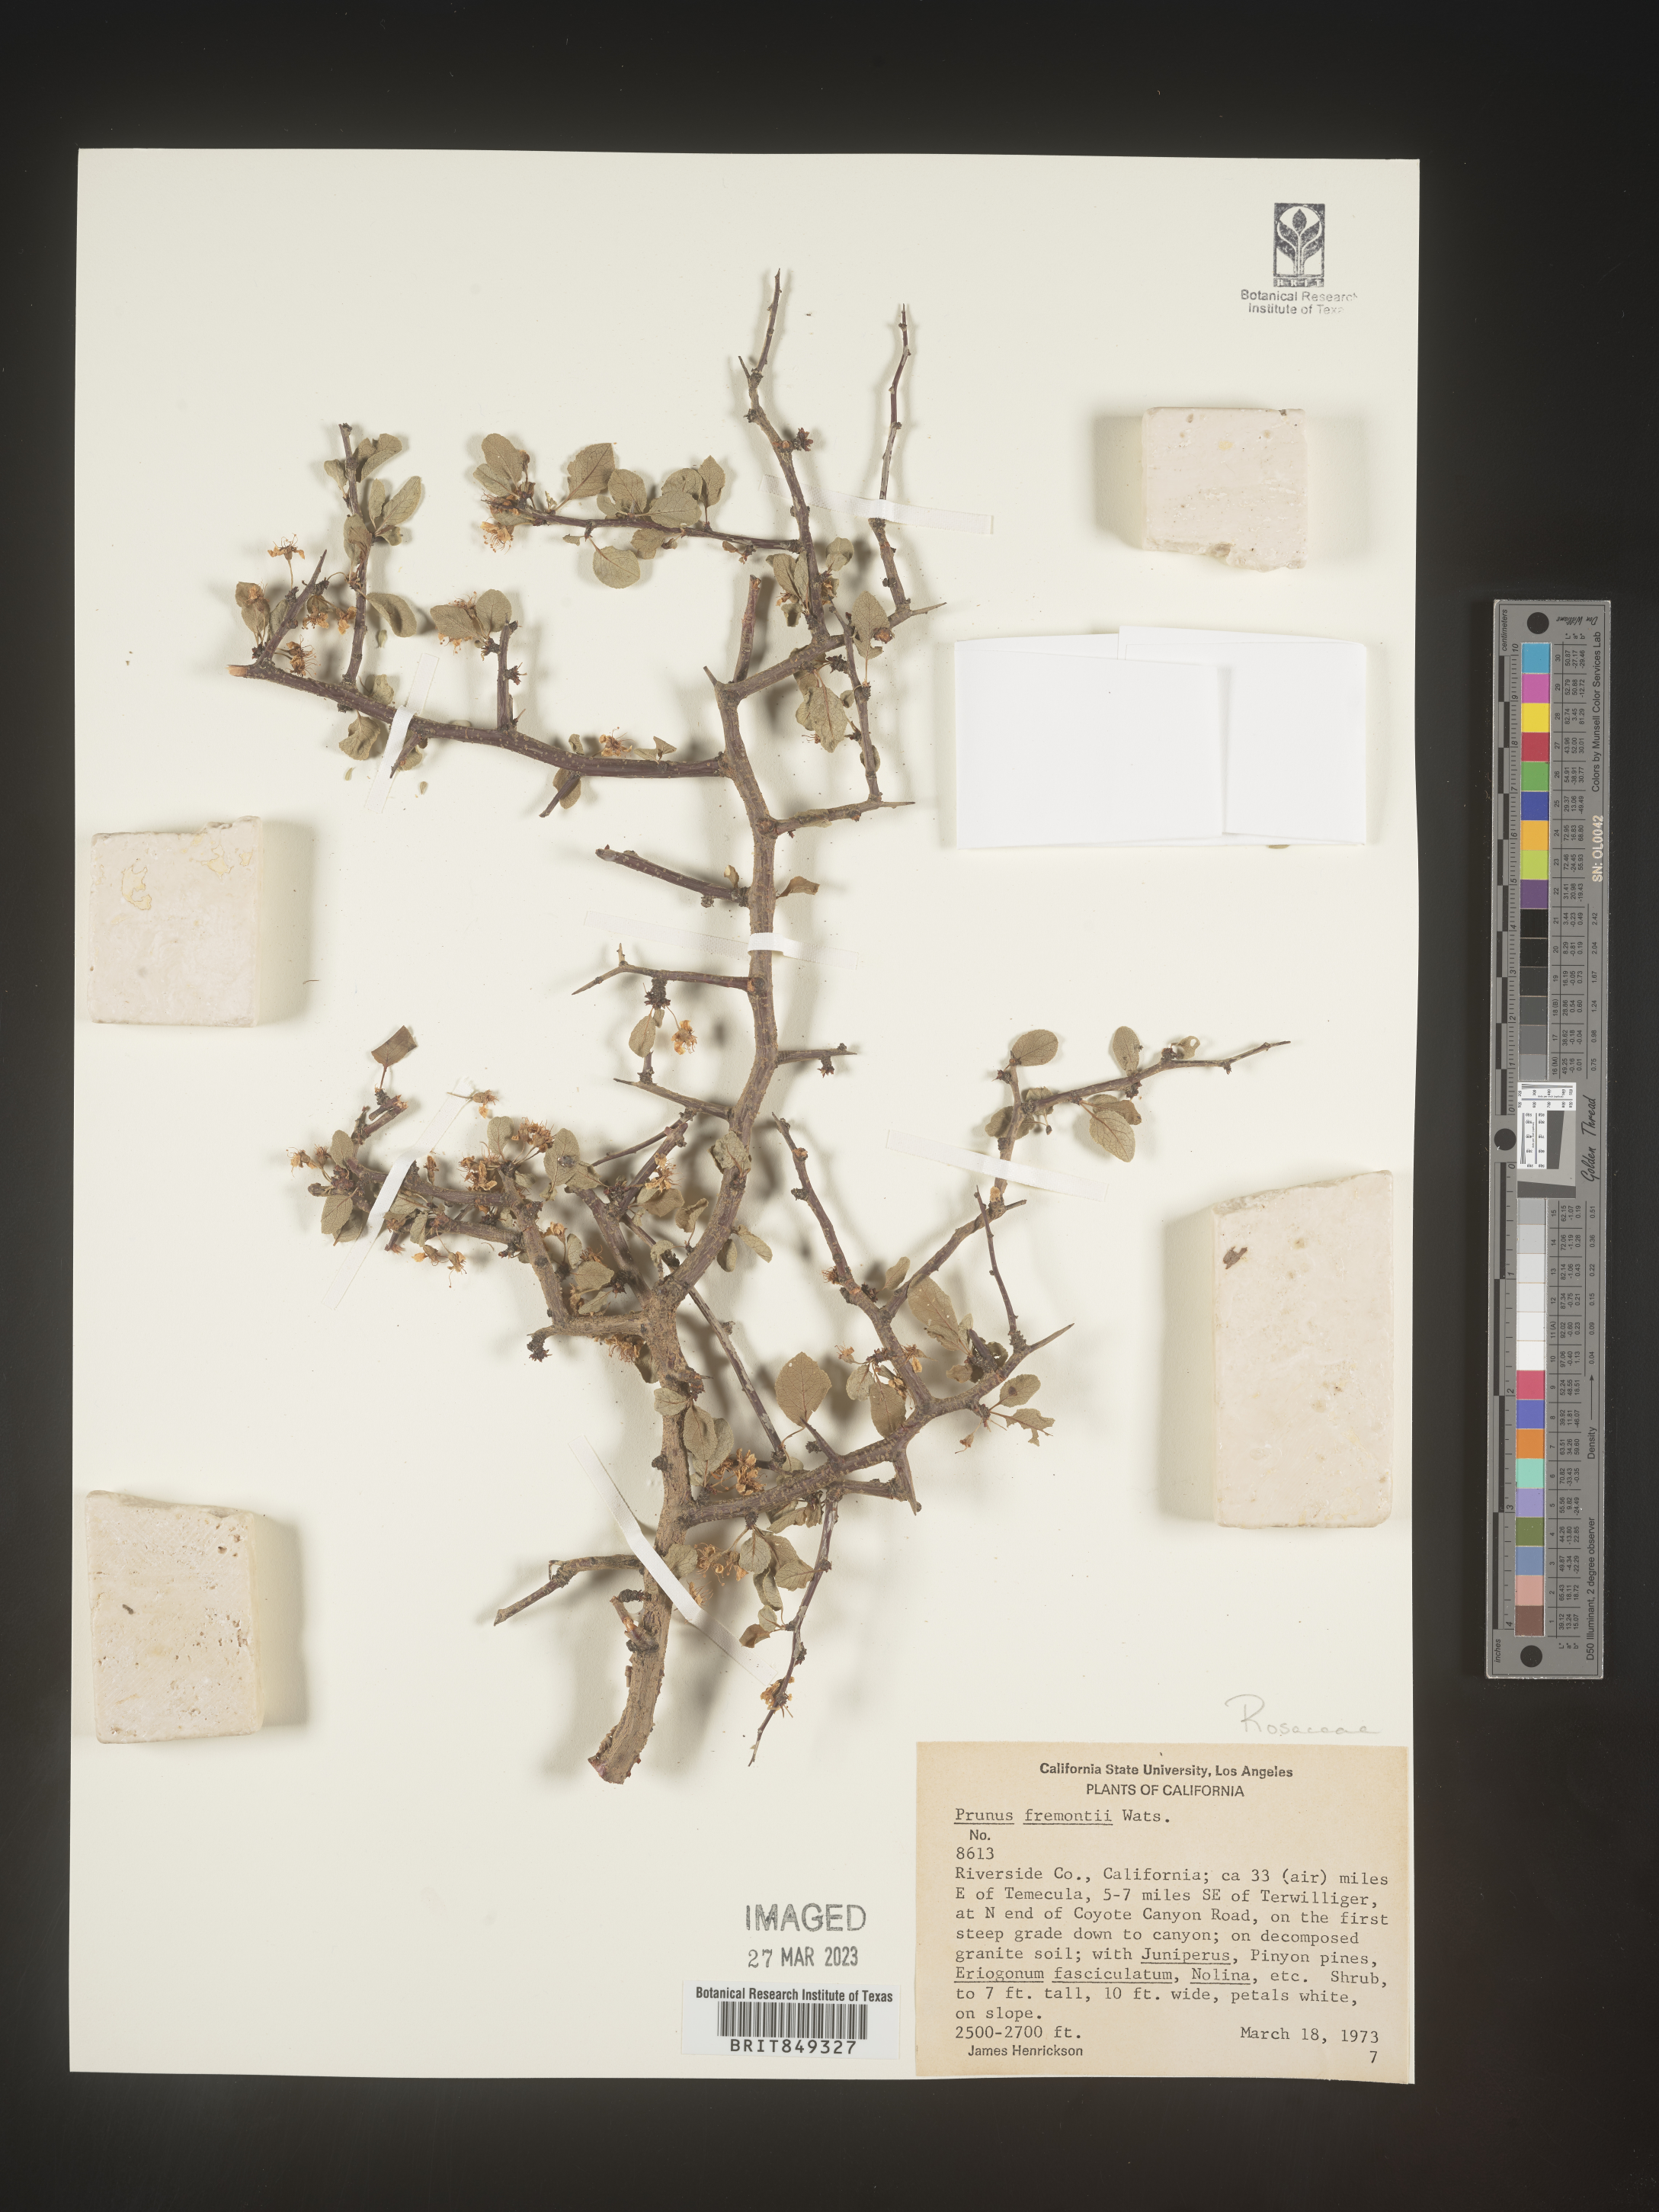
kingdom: Plantae
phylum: Tracheophyta
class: Magnoliopsida
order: Rosales
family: Rosaceae
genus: Prunus
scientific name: Prunus
